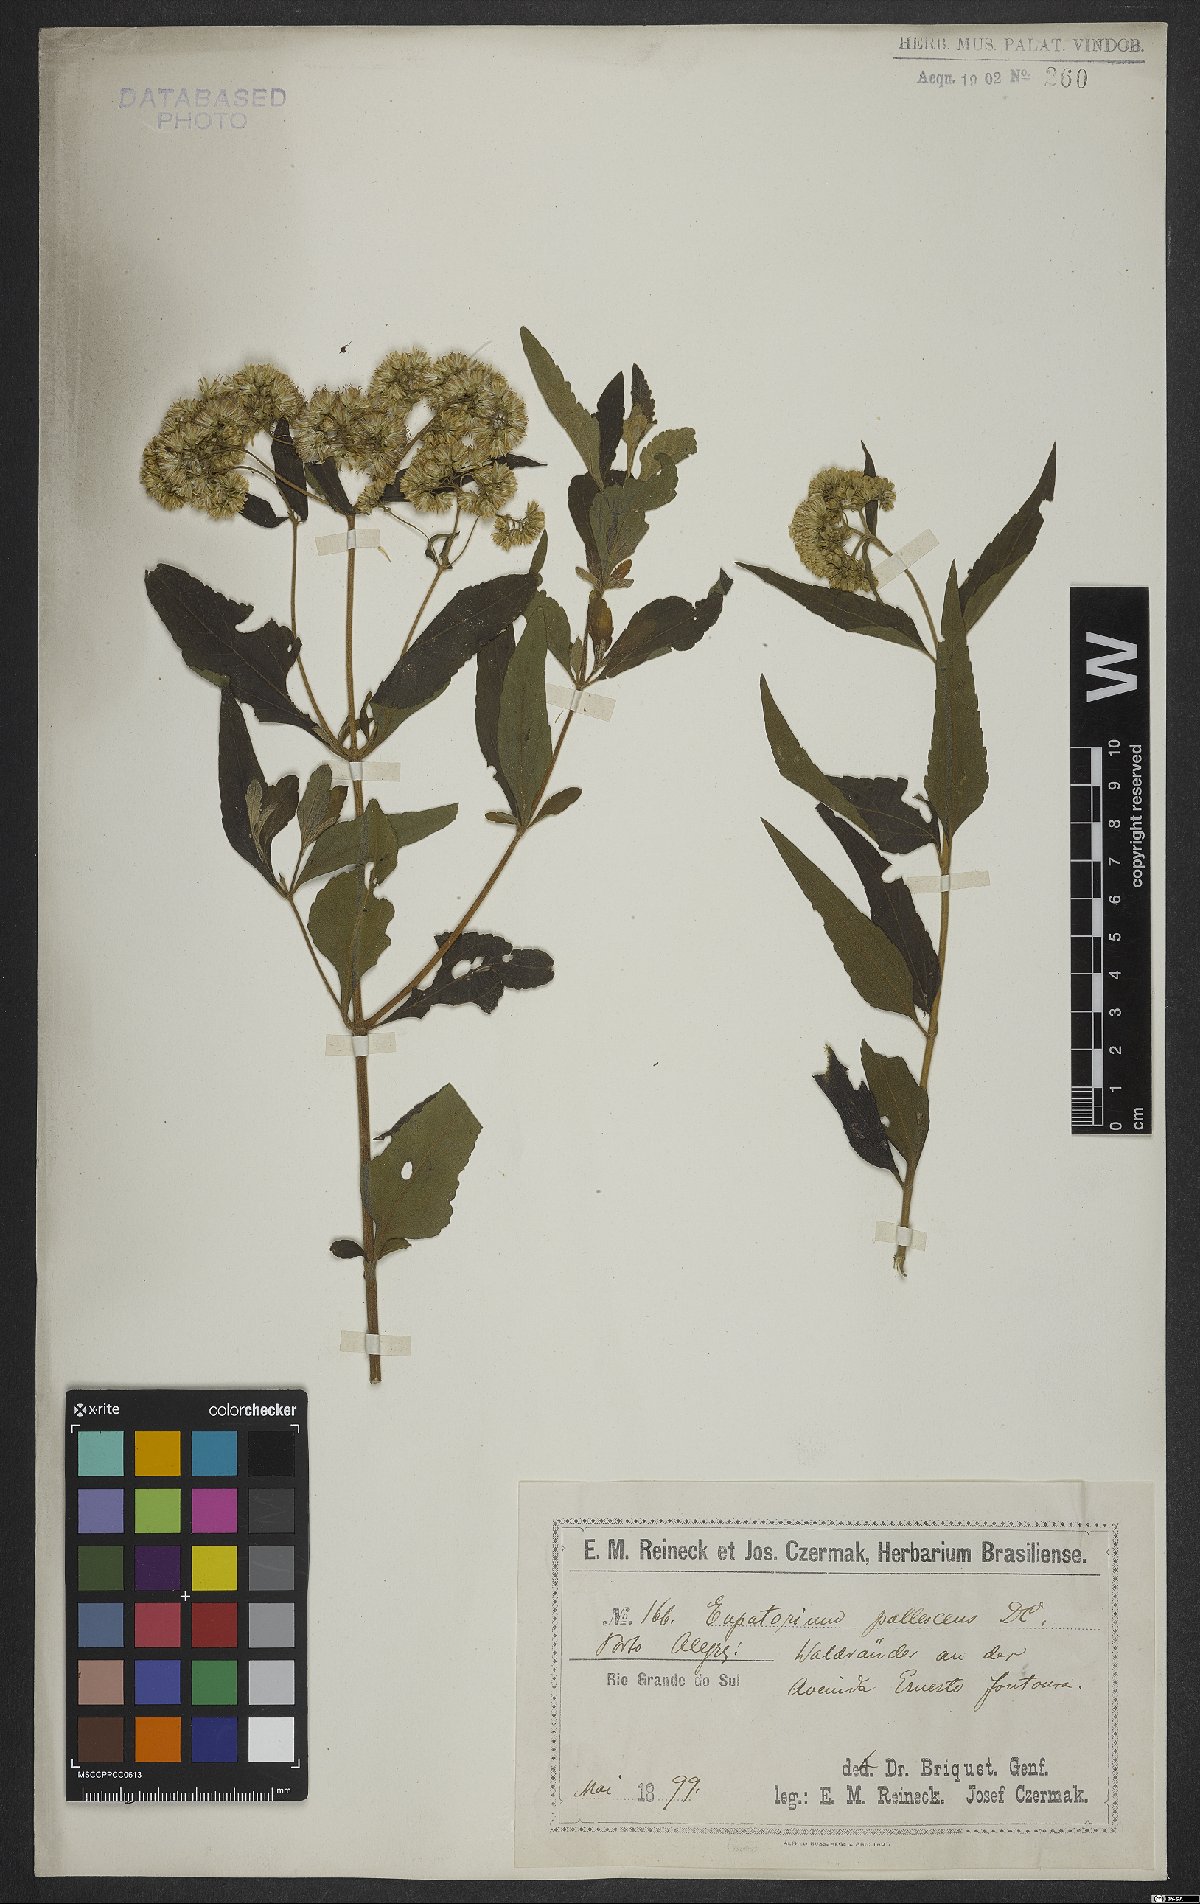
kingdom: Plantae
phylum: Tracheophyta
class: Magnoliopsida
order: Asterales
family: Asteraceae
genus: Austroeupatorium
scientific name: Austroeupatorium inulifolium
